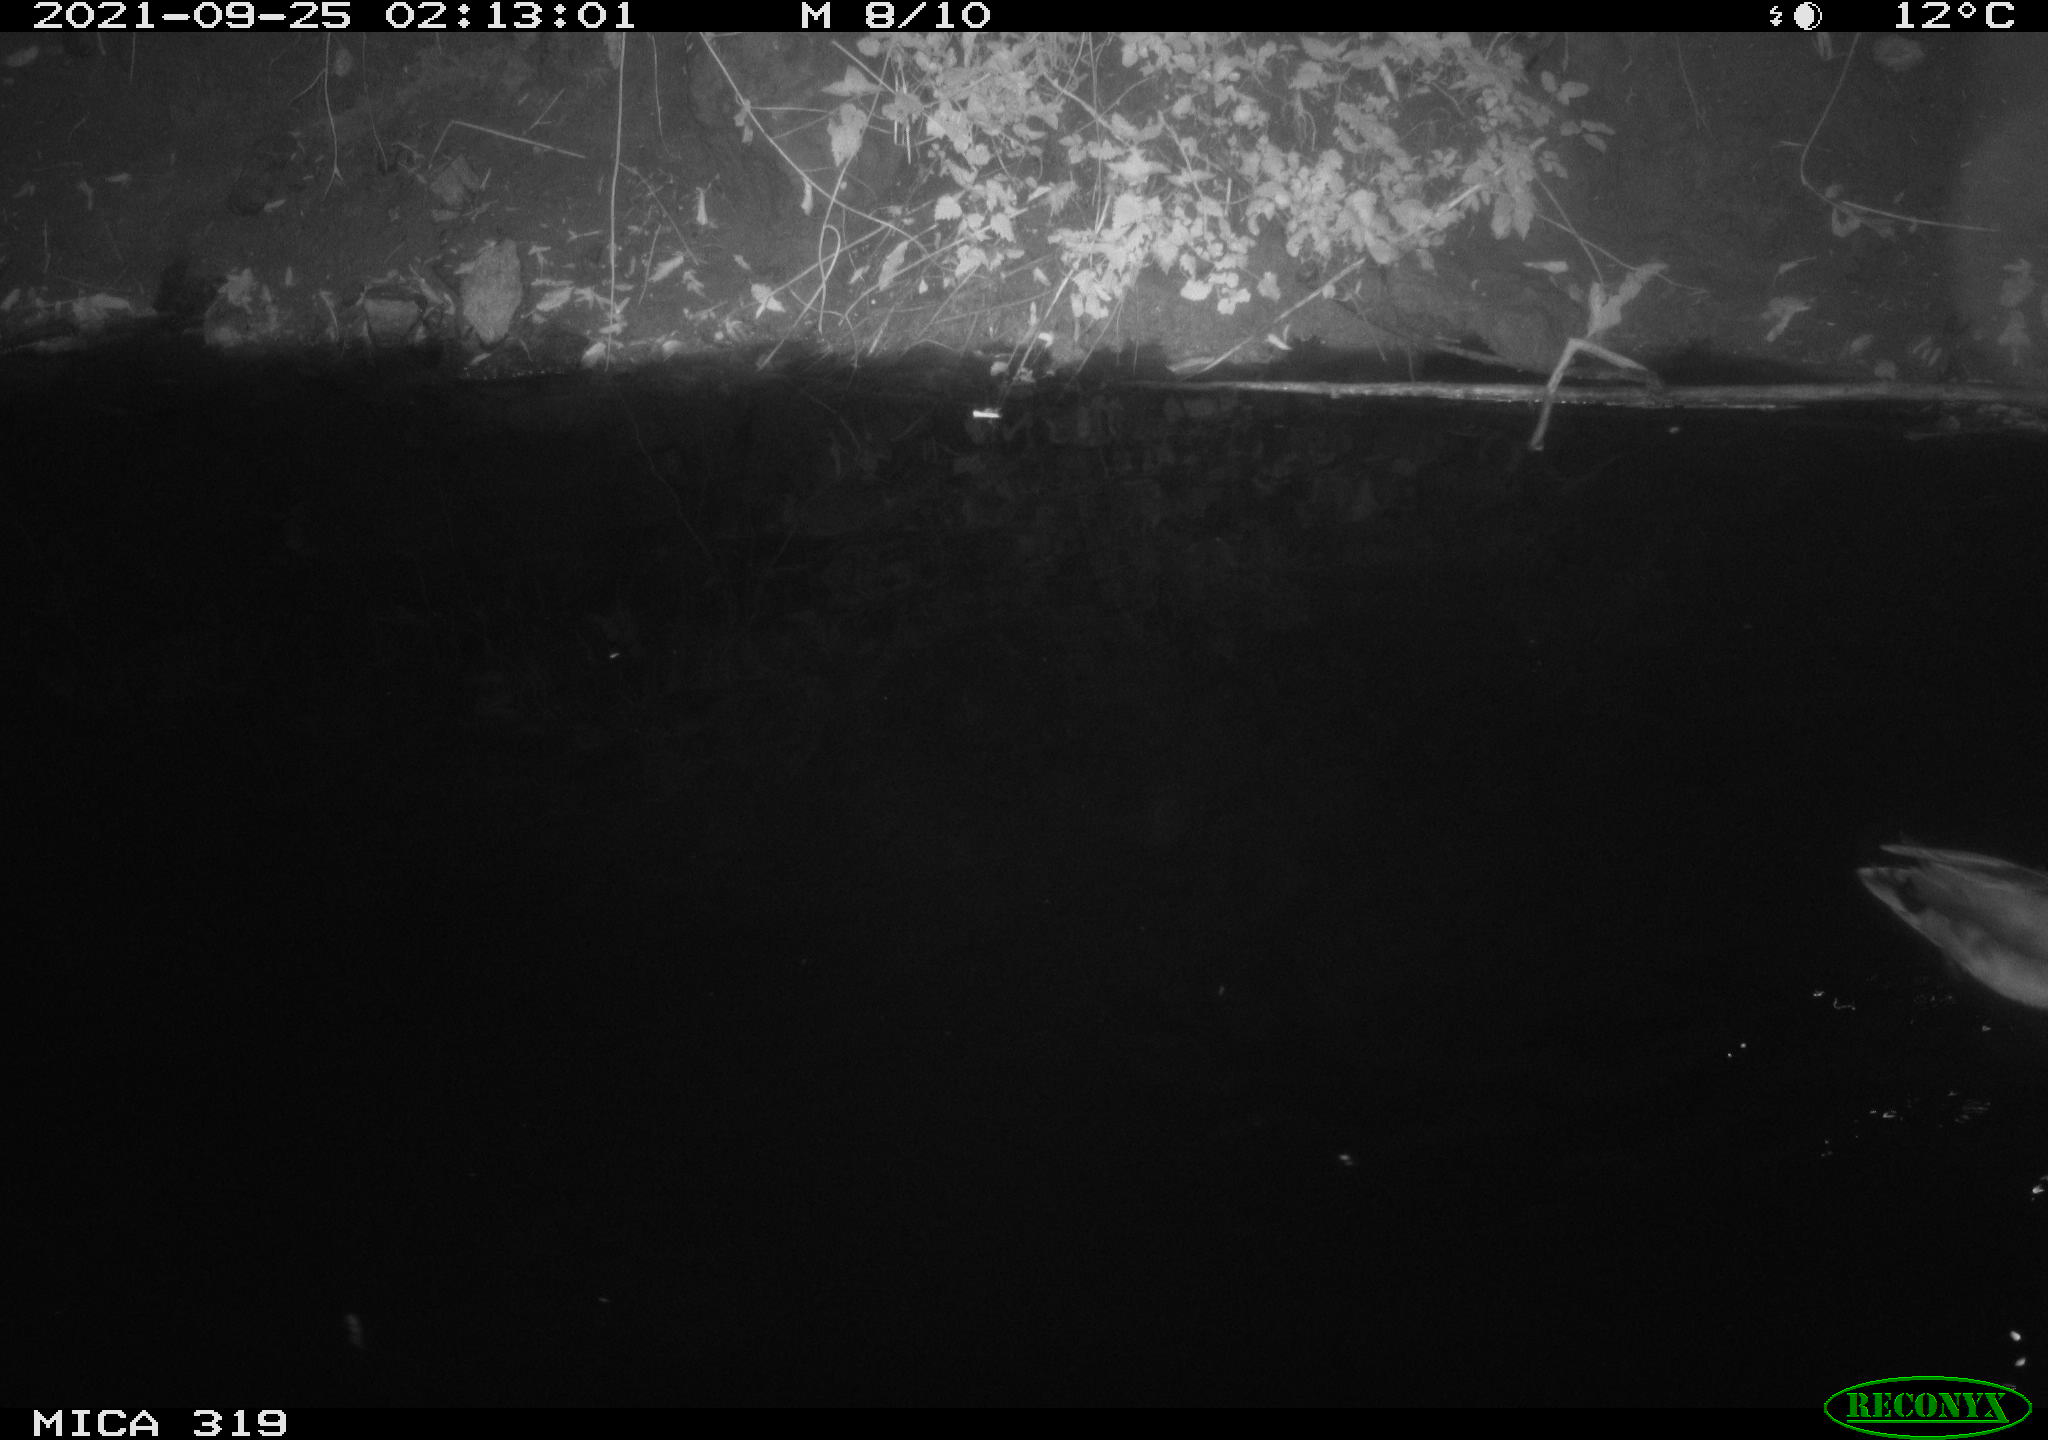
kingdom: Animalia
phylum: Chordata
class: Aves
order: Anseriformes
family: Anatidae
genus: Anas
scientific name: Anas platyrhynchos
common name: Mallard
